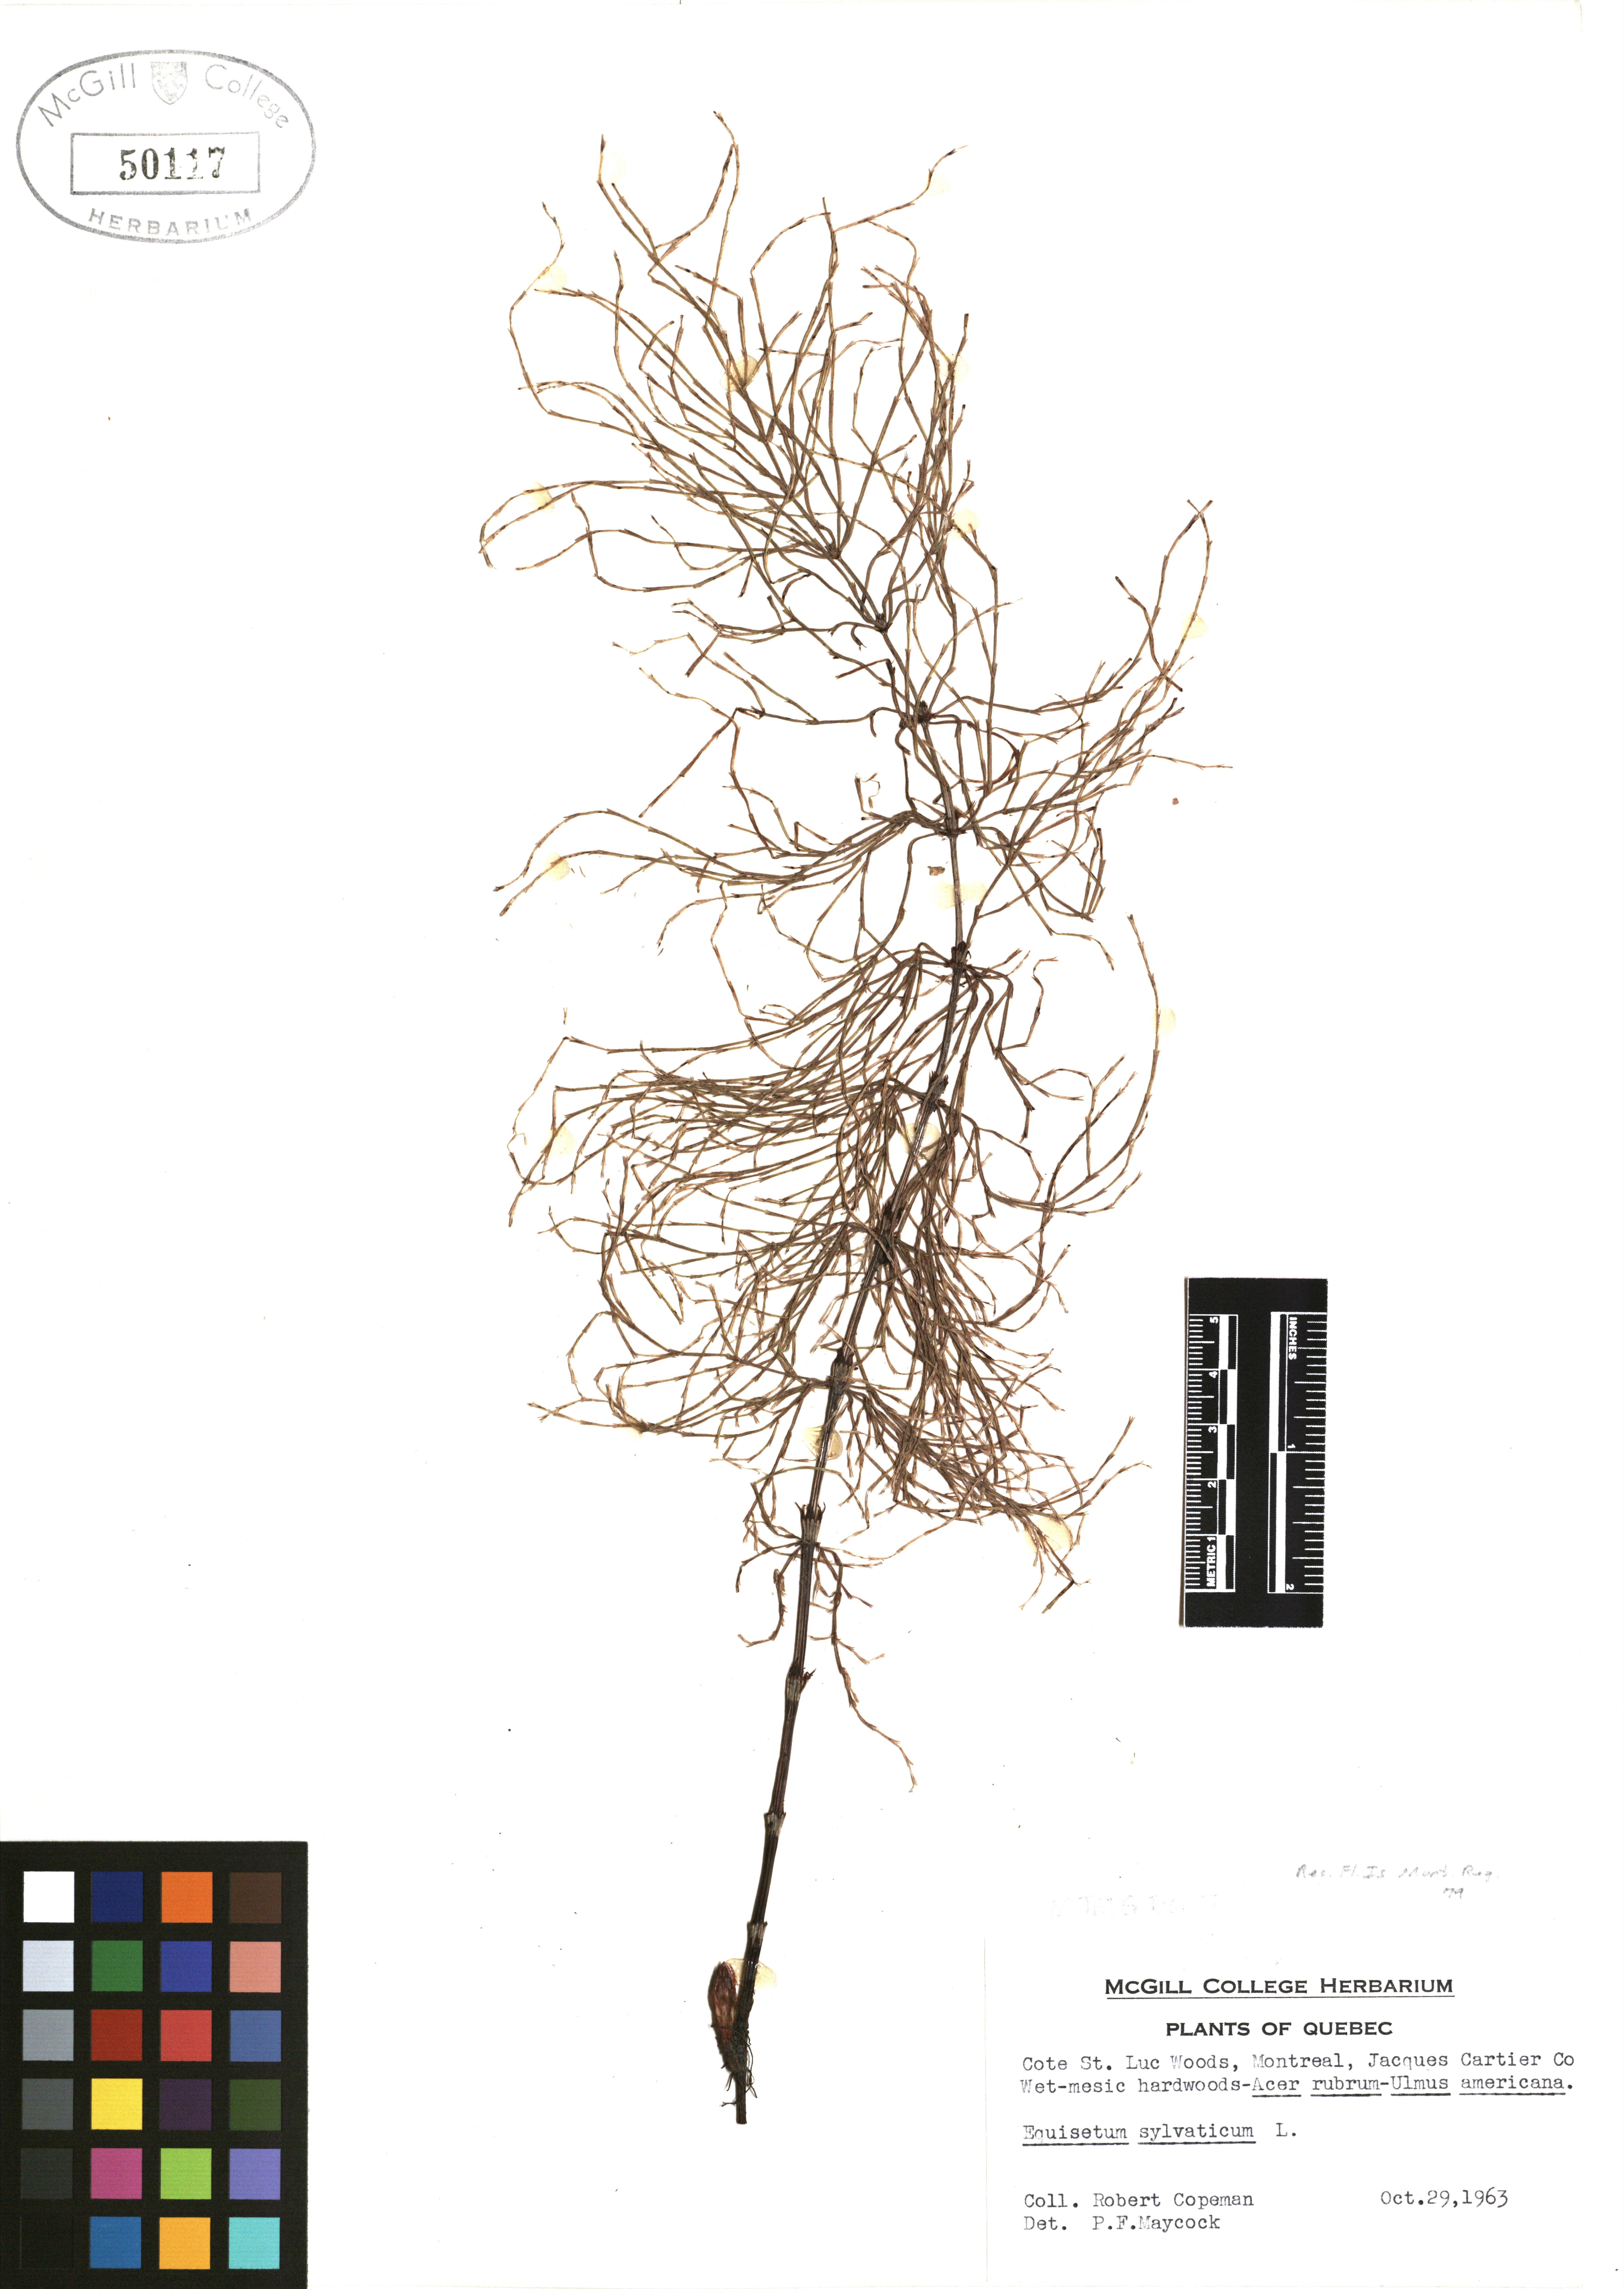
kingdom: Plantae
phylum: Tracheophyta
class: Polypodiopsida
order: Equisetales
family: Equisetaceae
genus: Equisetum
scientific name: Equisetum sylvaticum
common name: Wood horsetail
